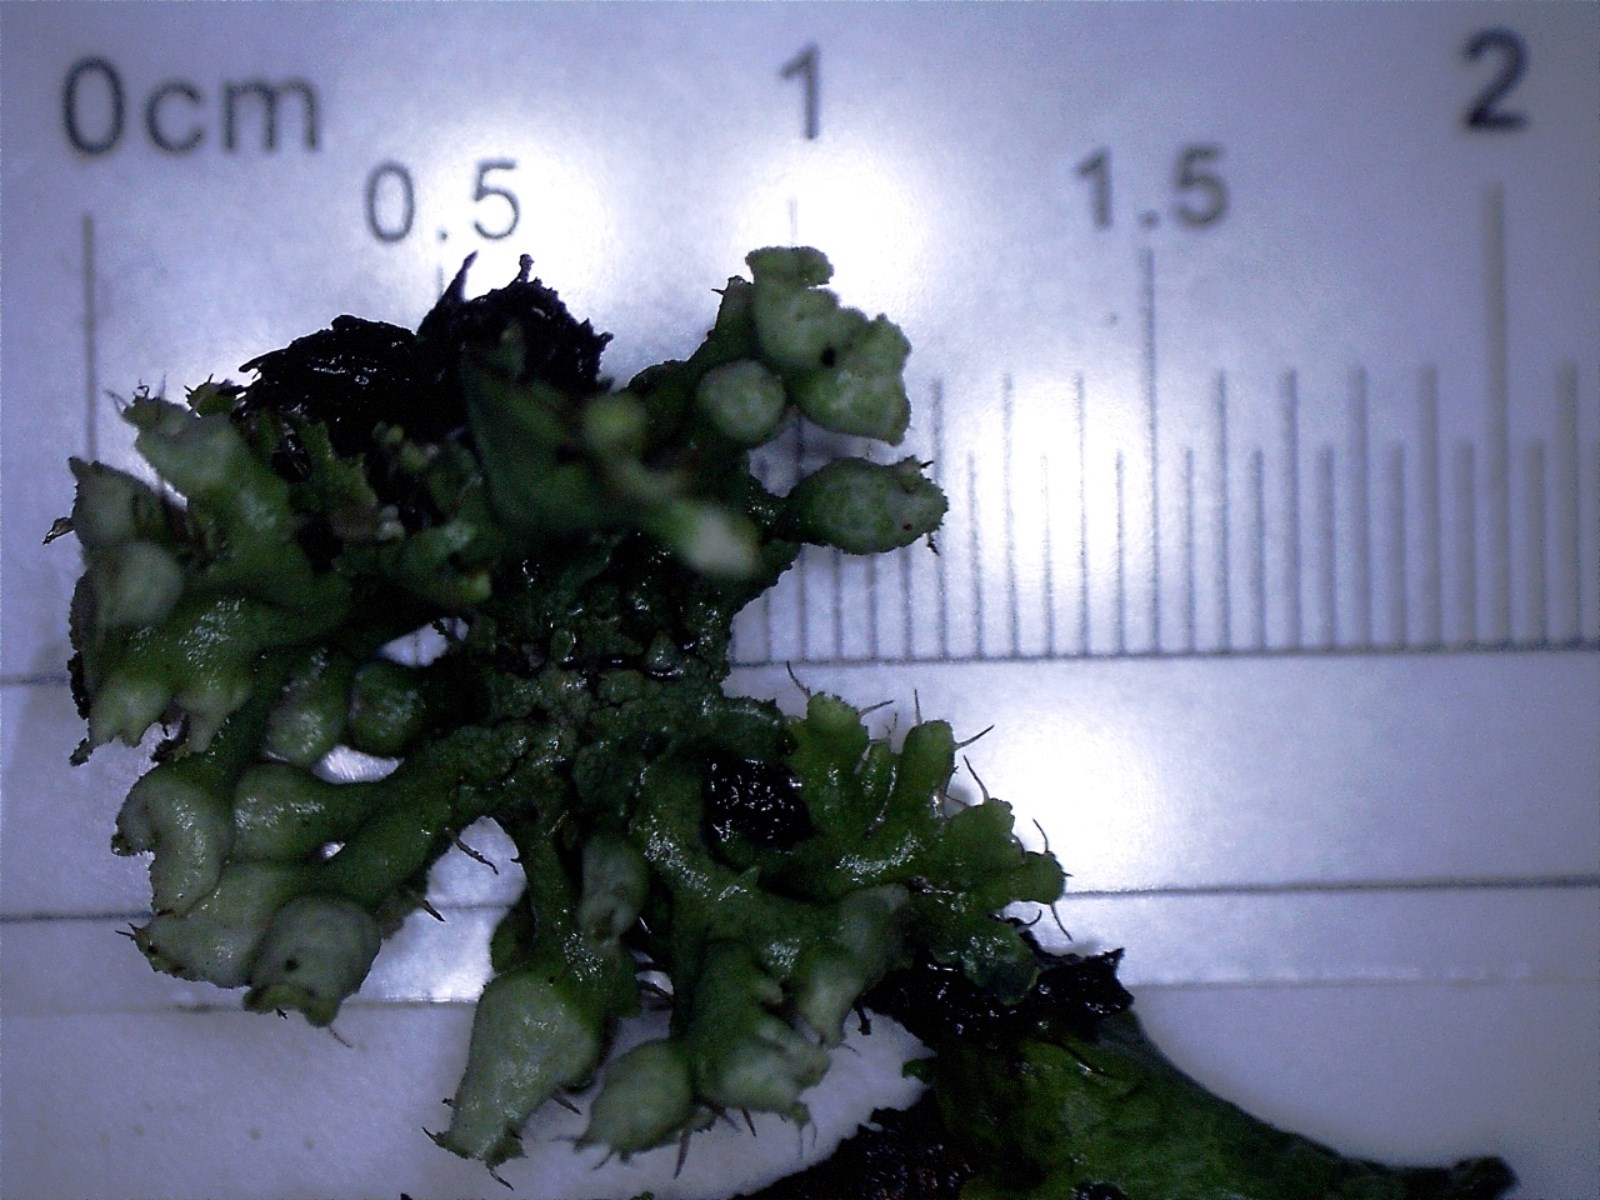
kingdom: Fungi
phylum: Ascomycota
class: Lecanoromycetes
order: Caliciales
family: Physciaceae
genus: Physcia
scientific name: Physcia adscendens
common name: hætte-rosetlav
